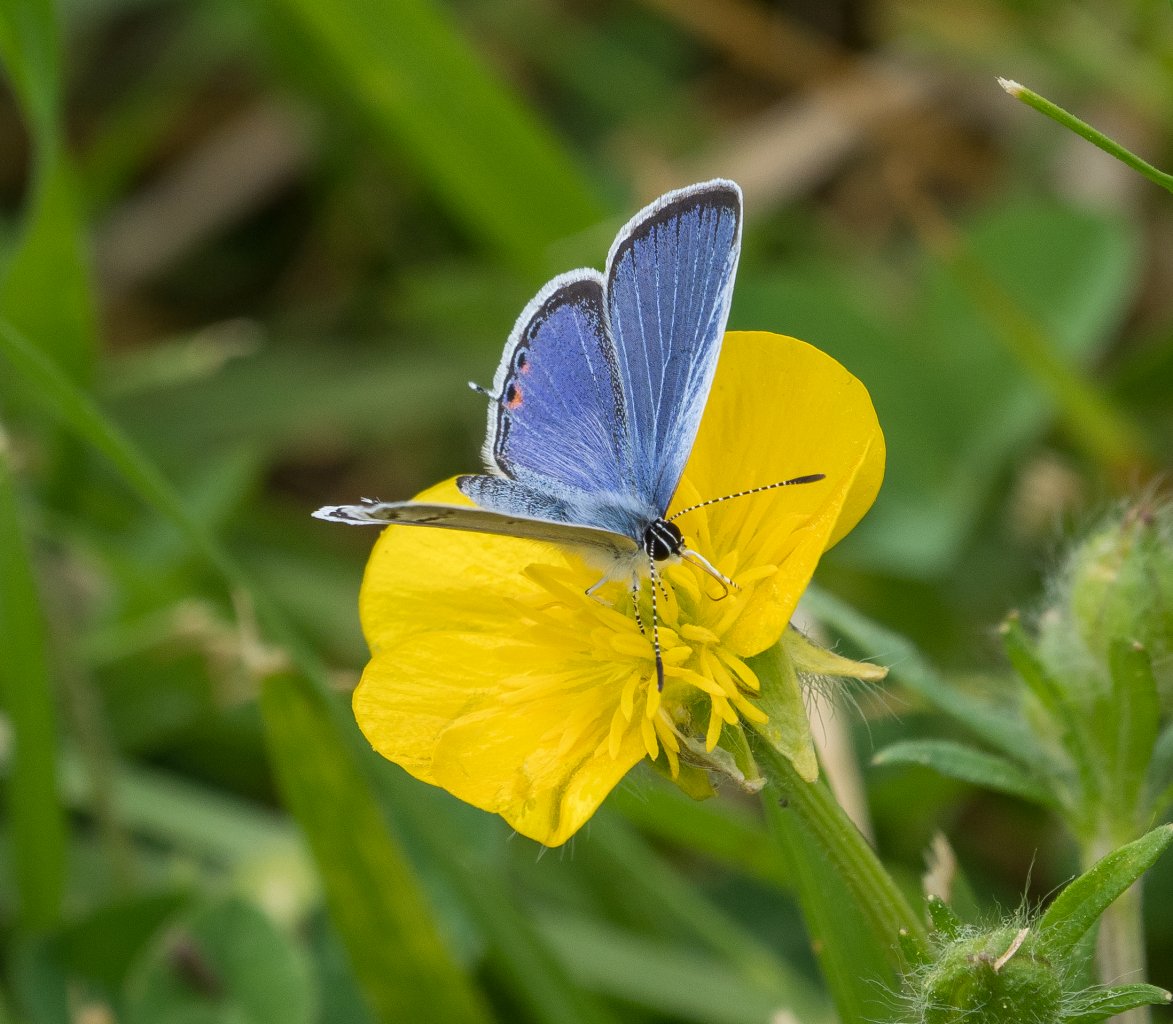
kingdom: Animalia
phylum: Arthropoda
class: Insecta
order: Lepidoptera
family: Lycaenidae
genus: Elkalyce
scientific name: Elkalyce comyntas
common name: Eastern Tailed-Blue
